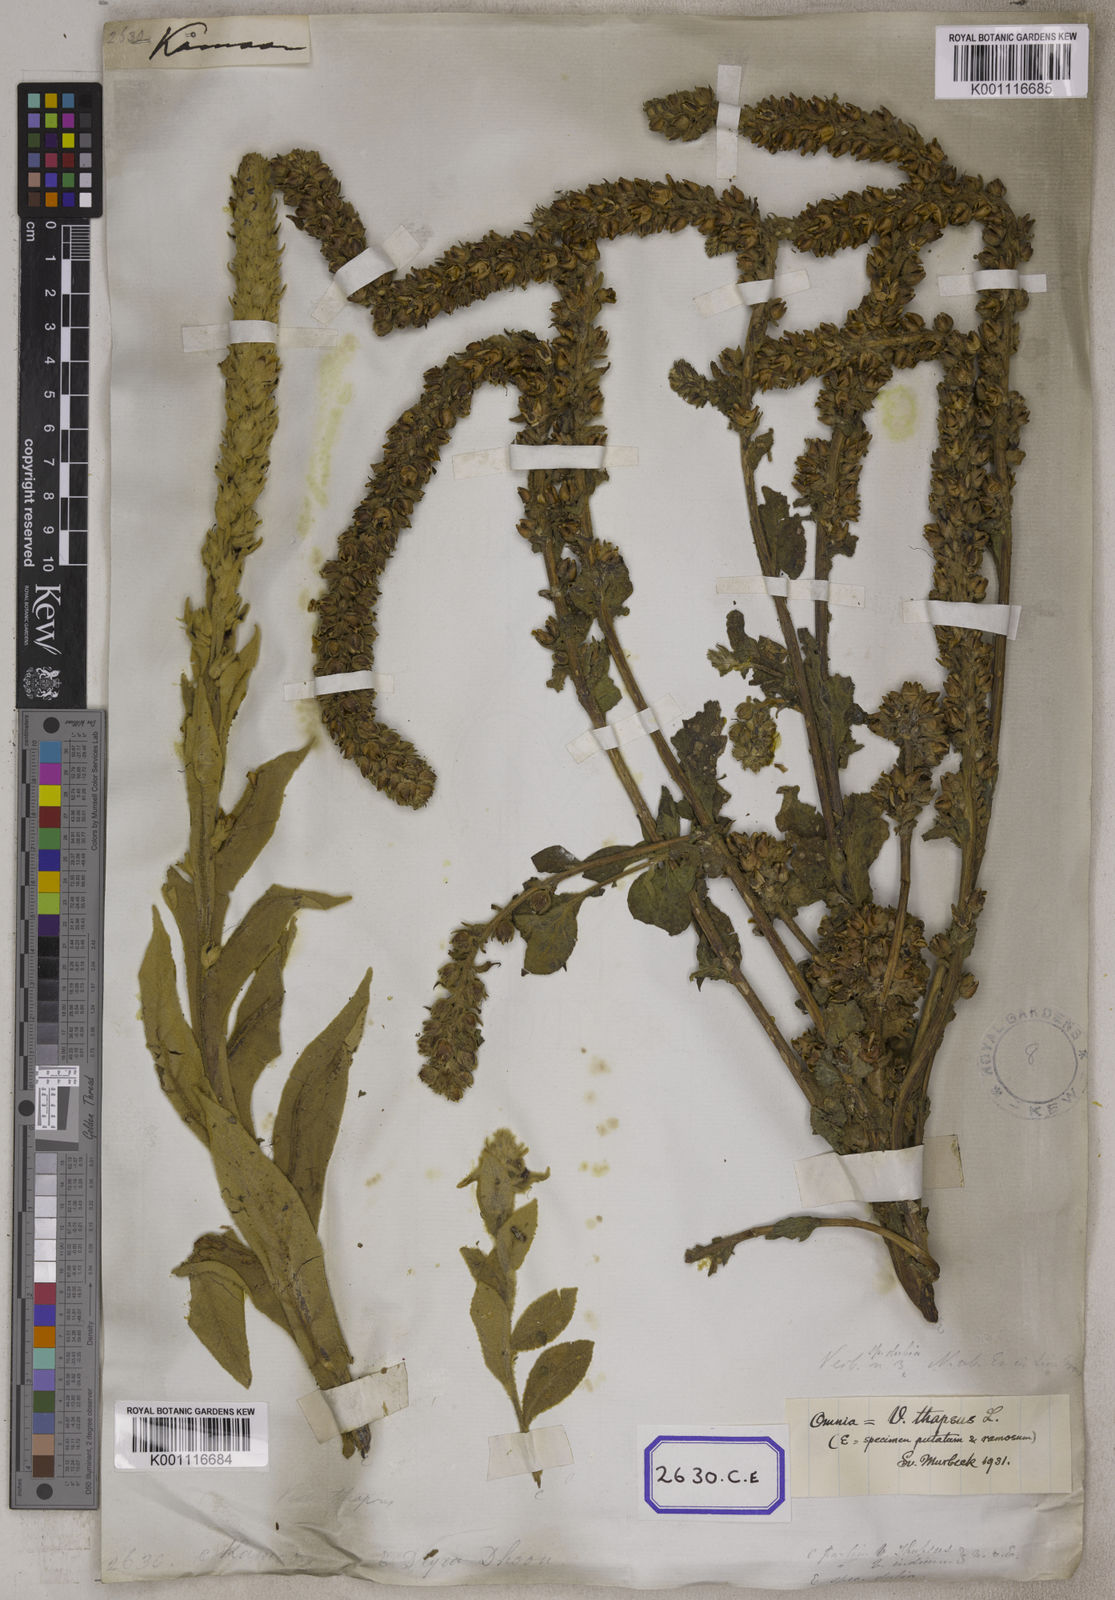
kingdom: Plantae
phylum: Tracheophyta
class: Magnoliopsida
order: Lamiales
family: Scrophulariaceae
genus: Verbascum
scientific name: Verbascum thapsus
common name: Common mullein
